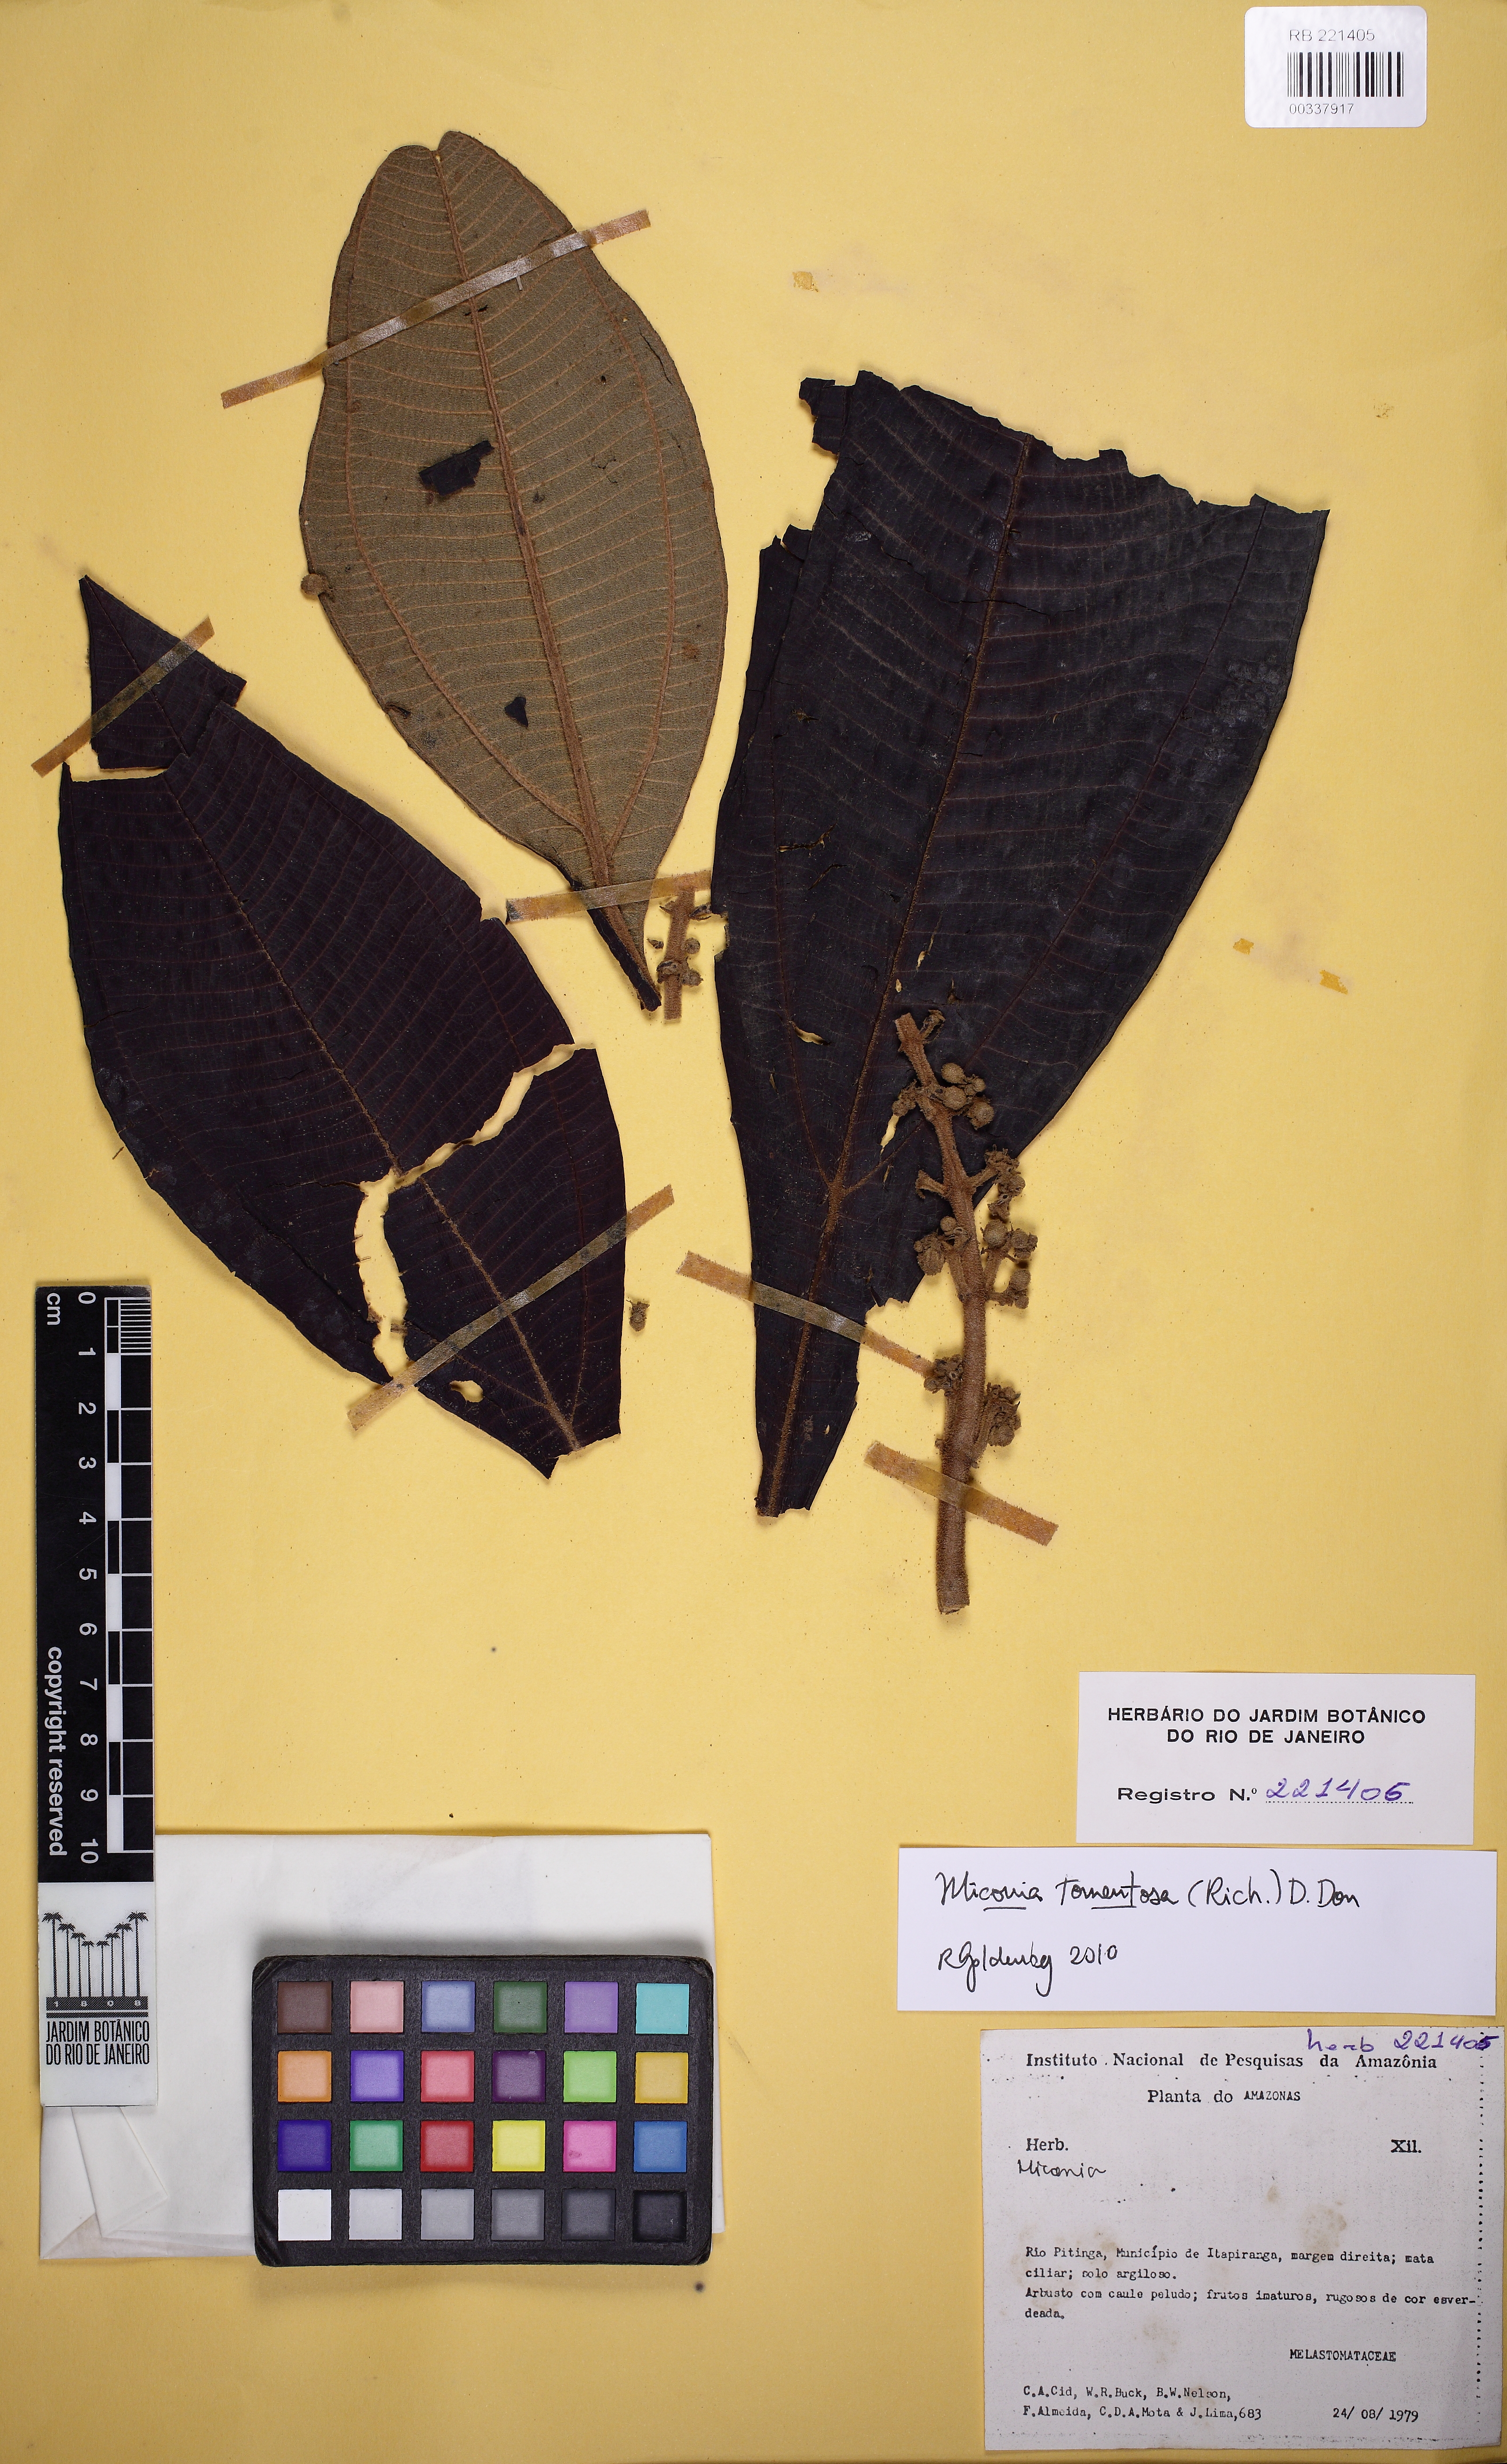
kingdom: Plantae
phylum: Tracheophyta
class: Magnoliopsida
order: Myrtales
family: Melastomataceae
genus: Miconia
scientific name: Miconia
